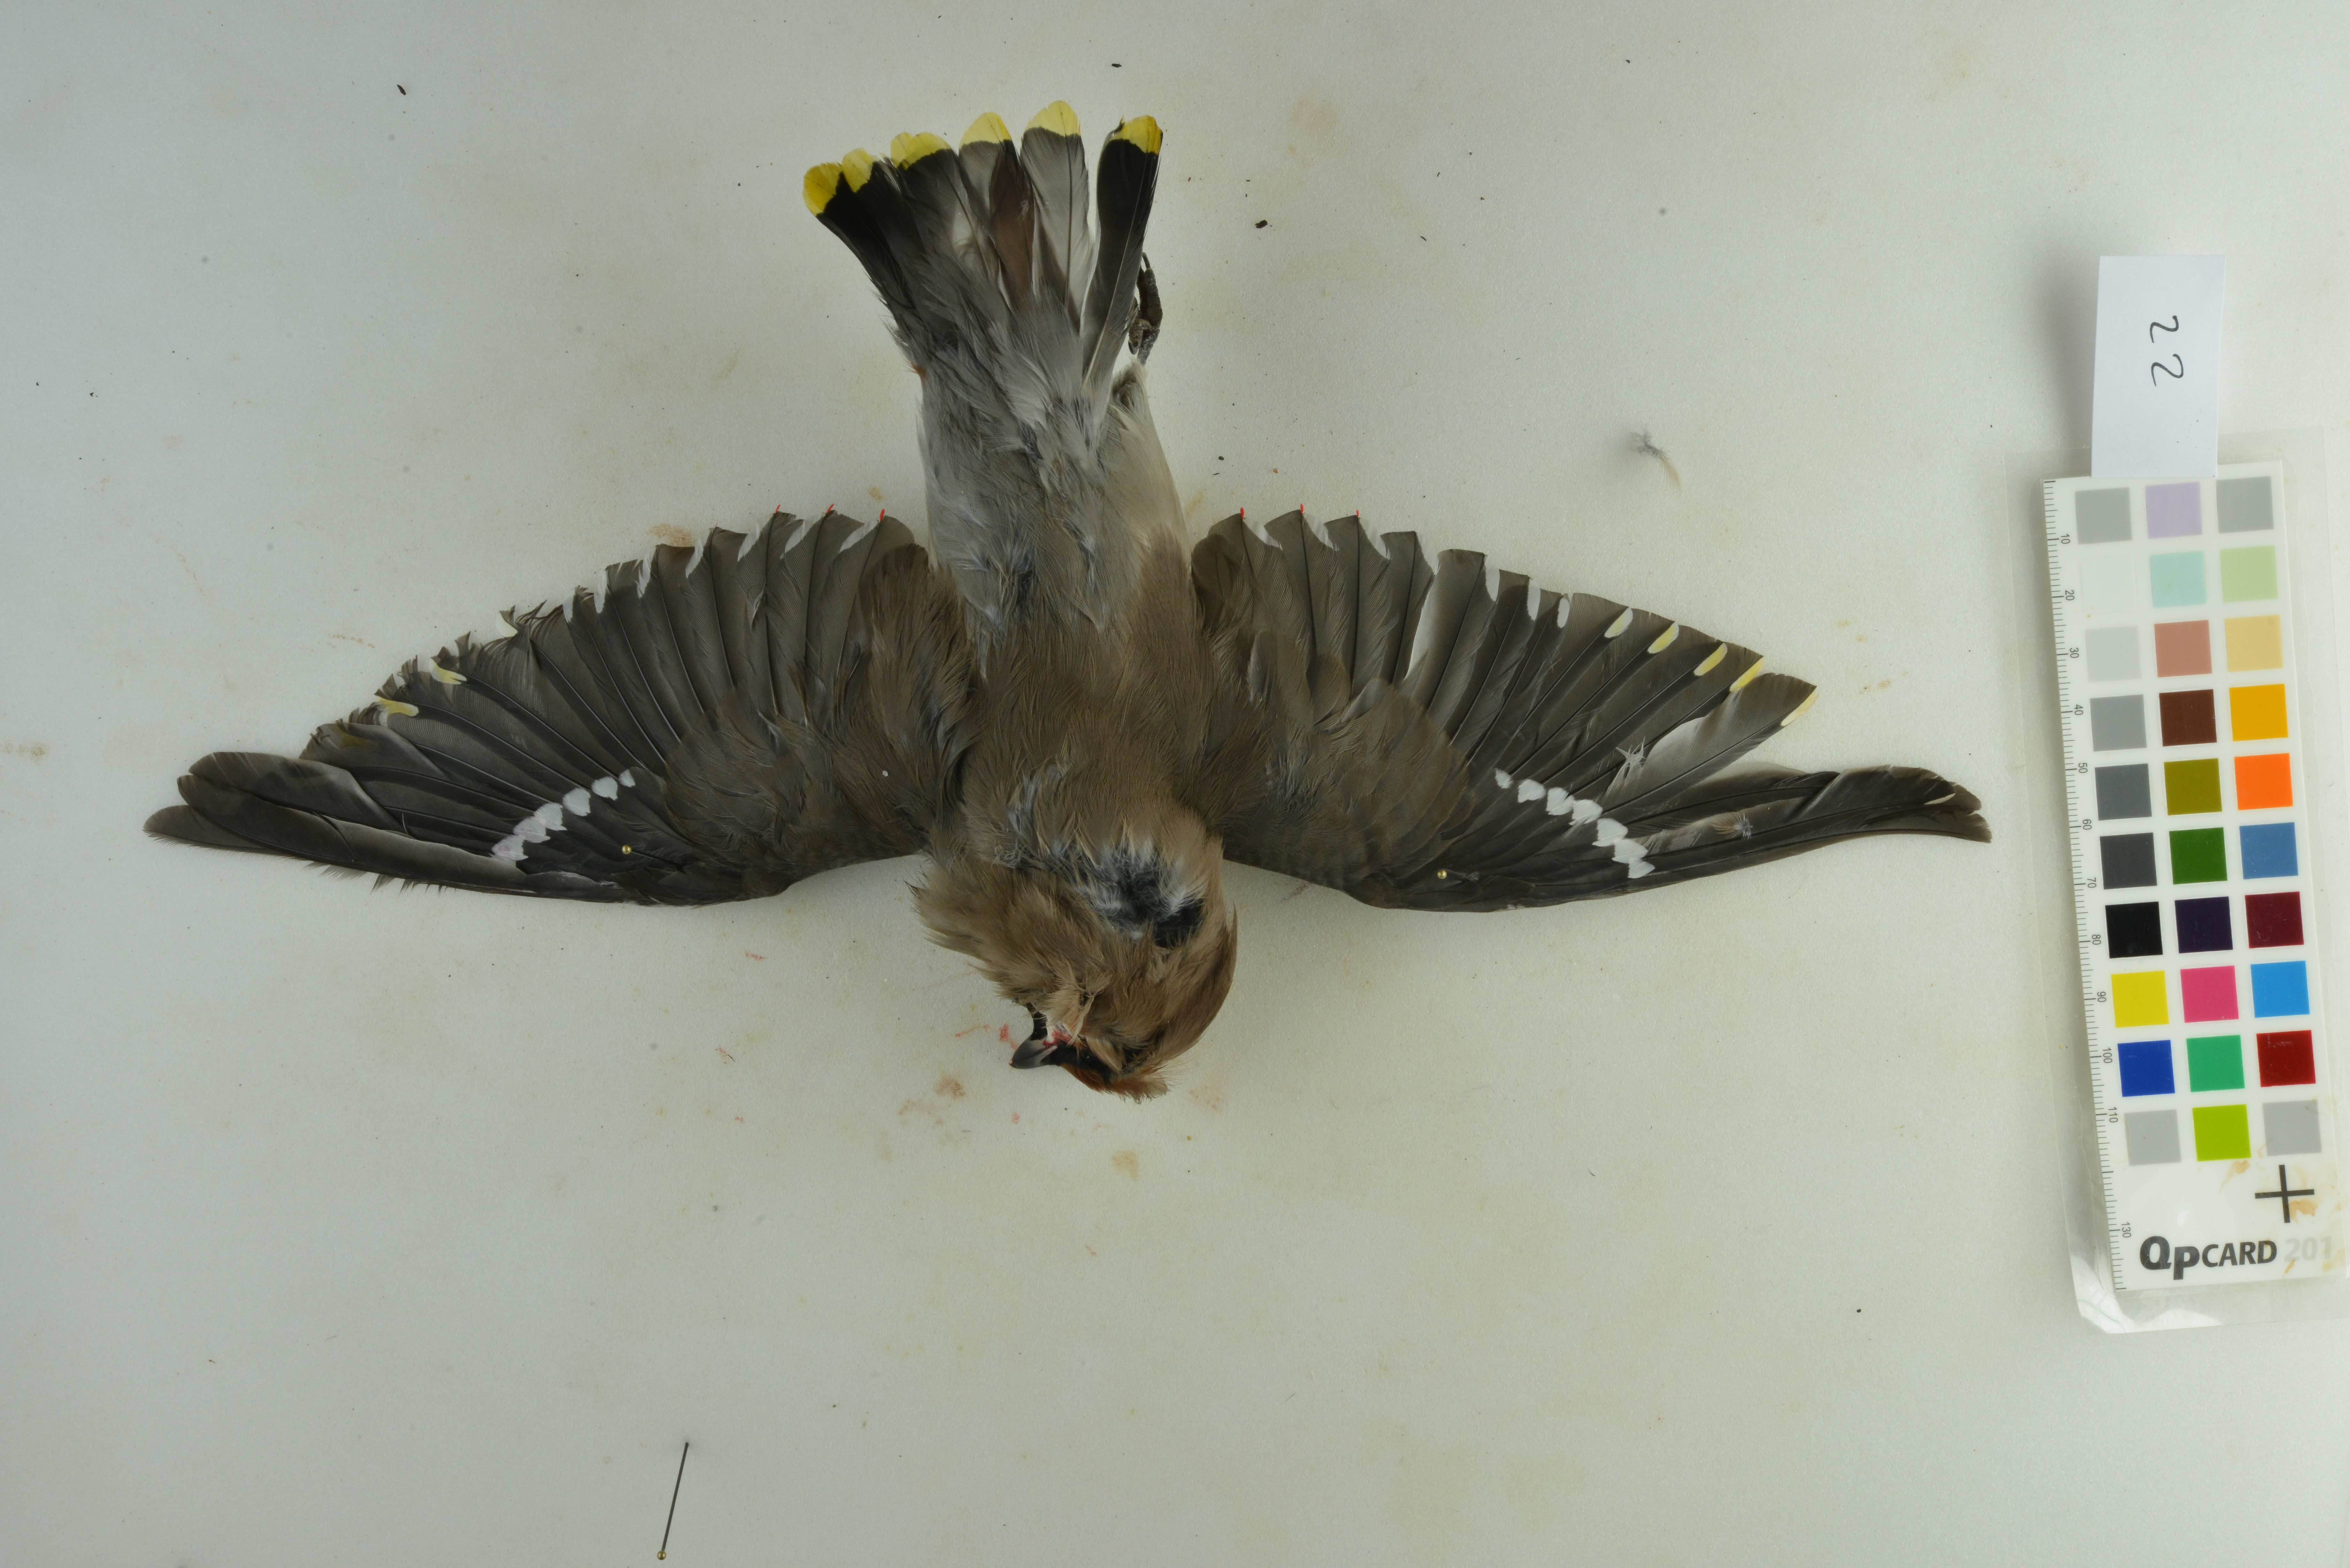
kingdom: Animalia
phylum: Chordata
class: Aves
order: Passeriformes
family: Bombycillidae
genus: Bombycilla
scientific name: Bombycilla garrulus
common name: Bohemian waxwing
